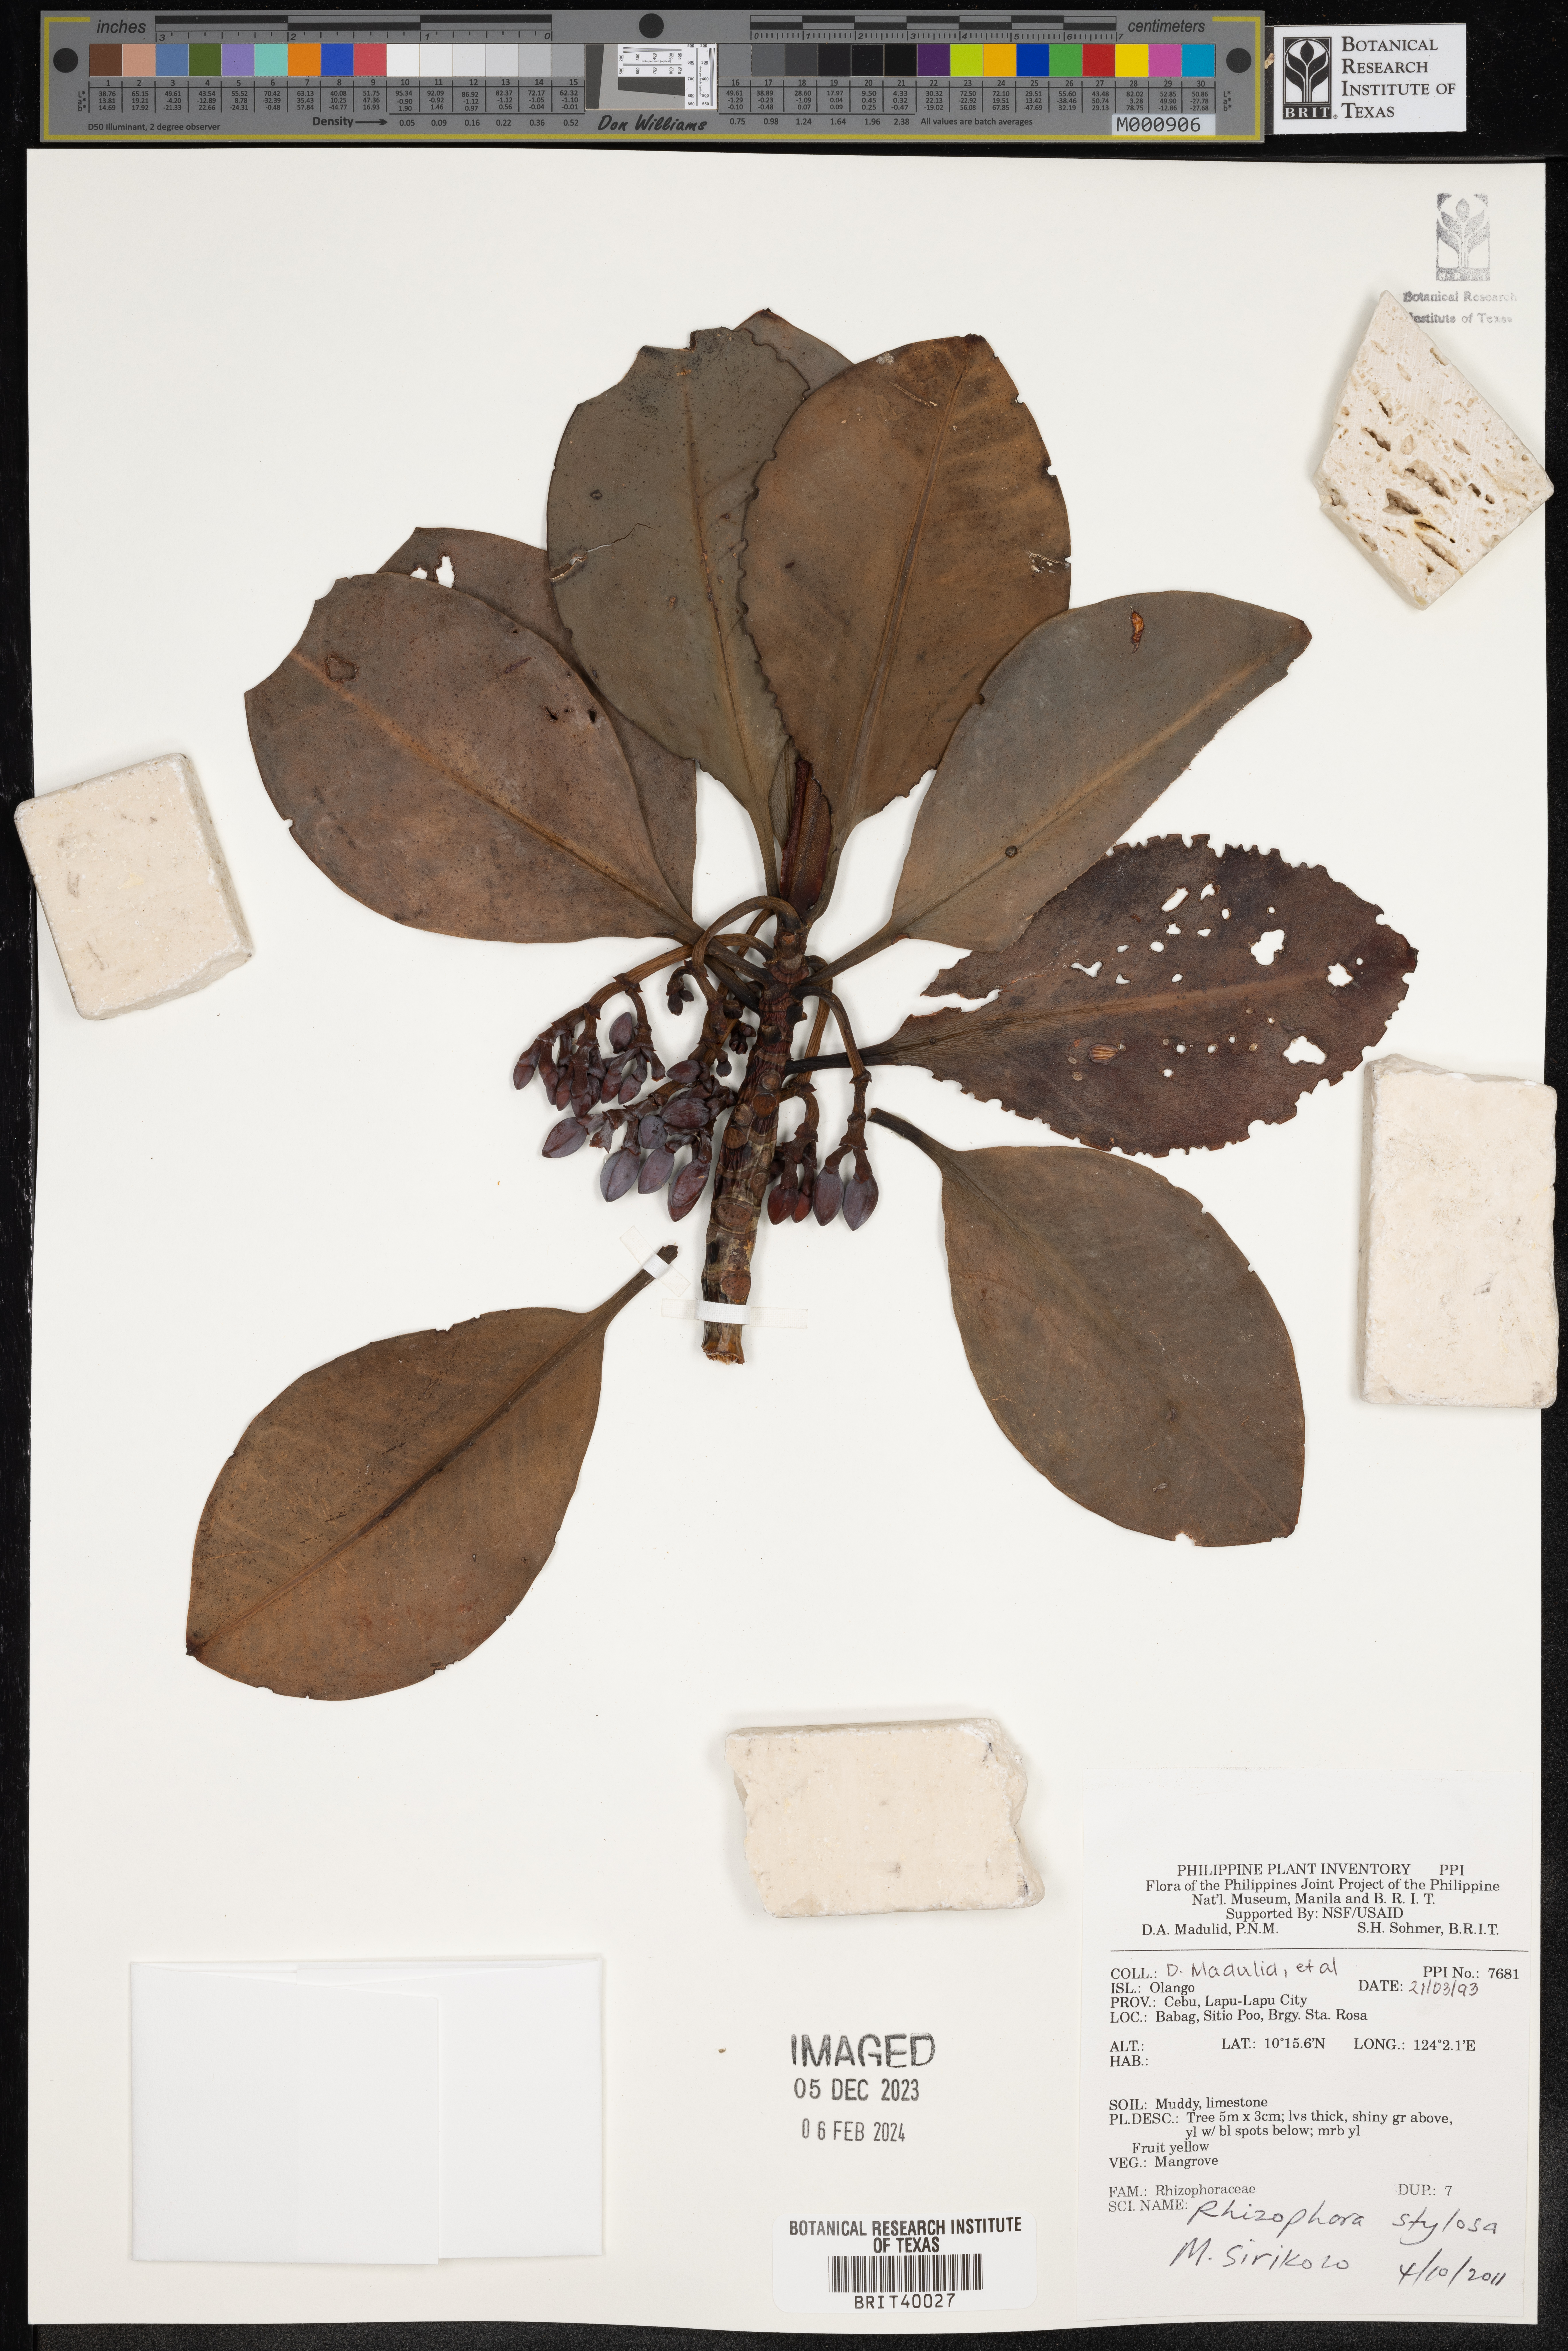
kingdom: Plantae
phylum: Tracheophyta
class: Magnoliopsida
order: Malpighiales
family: Rhizophoraceae
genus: Rhizophora
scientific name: Rhizophora stylosa
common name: Red mangrove
